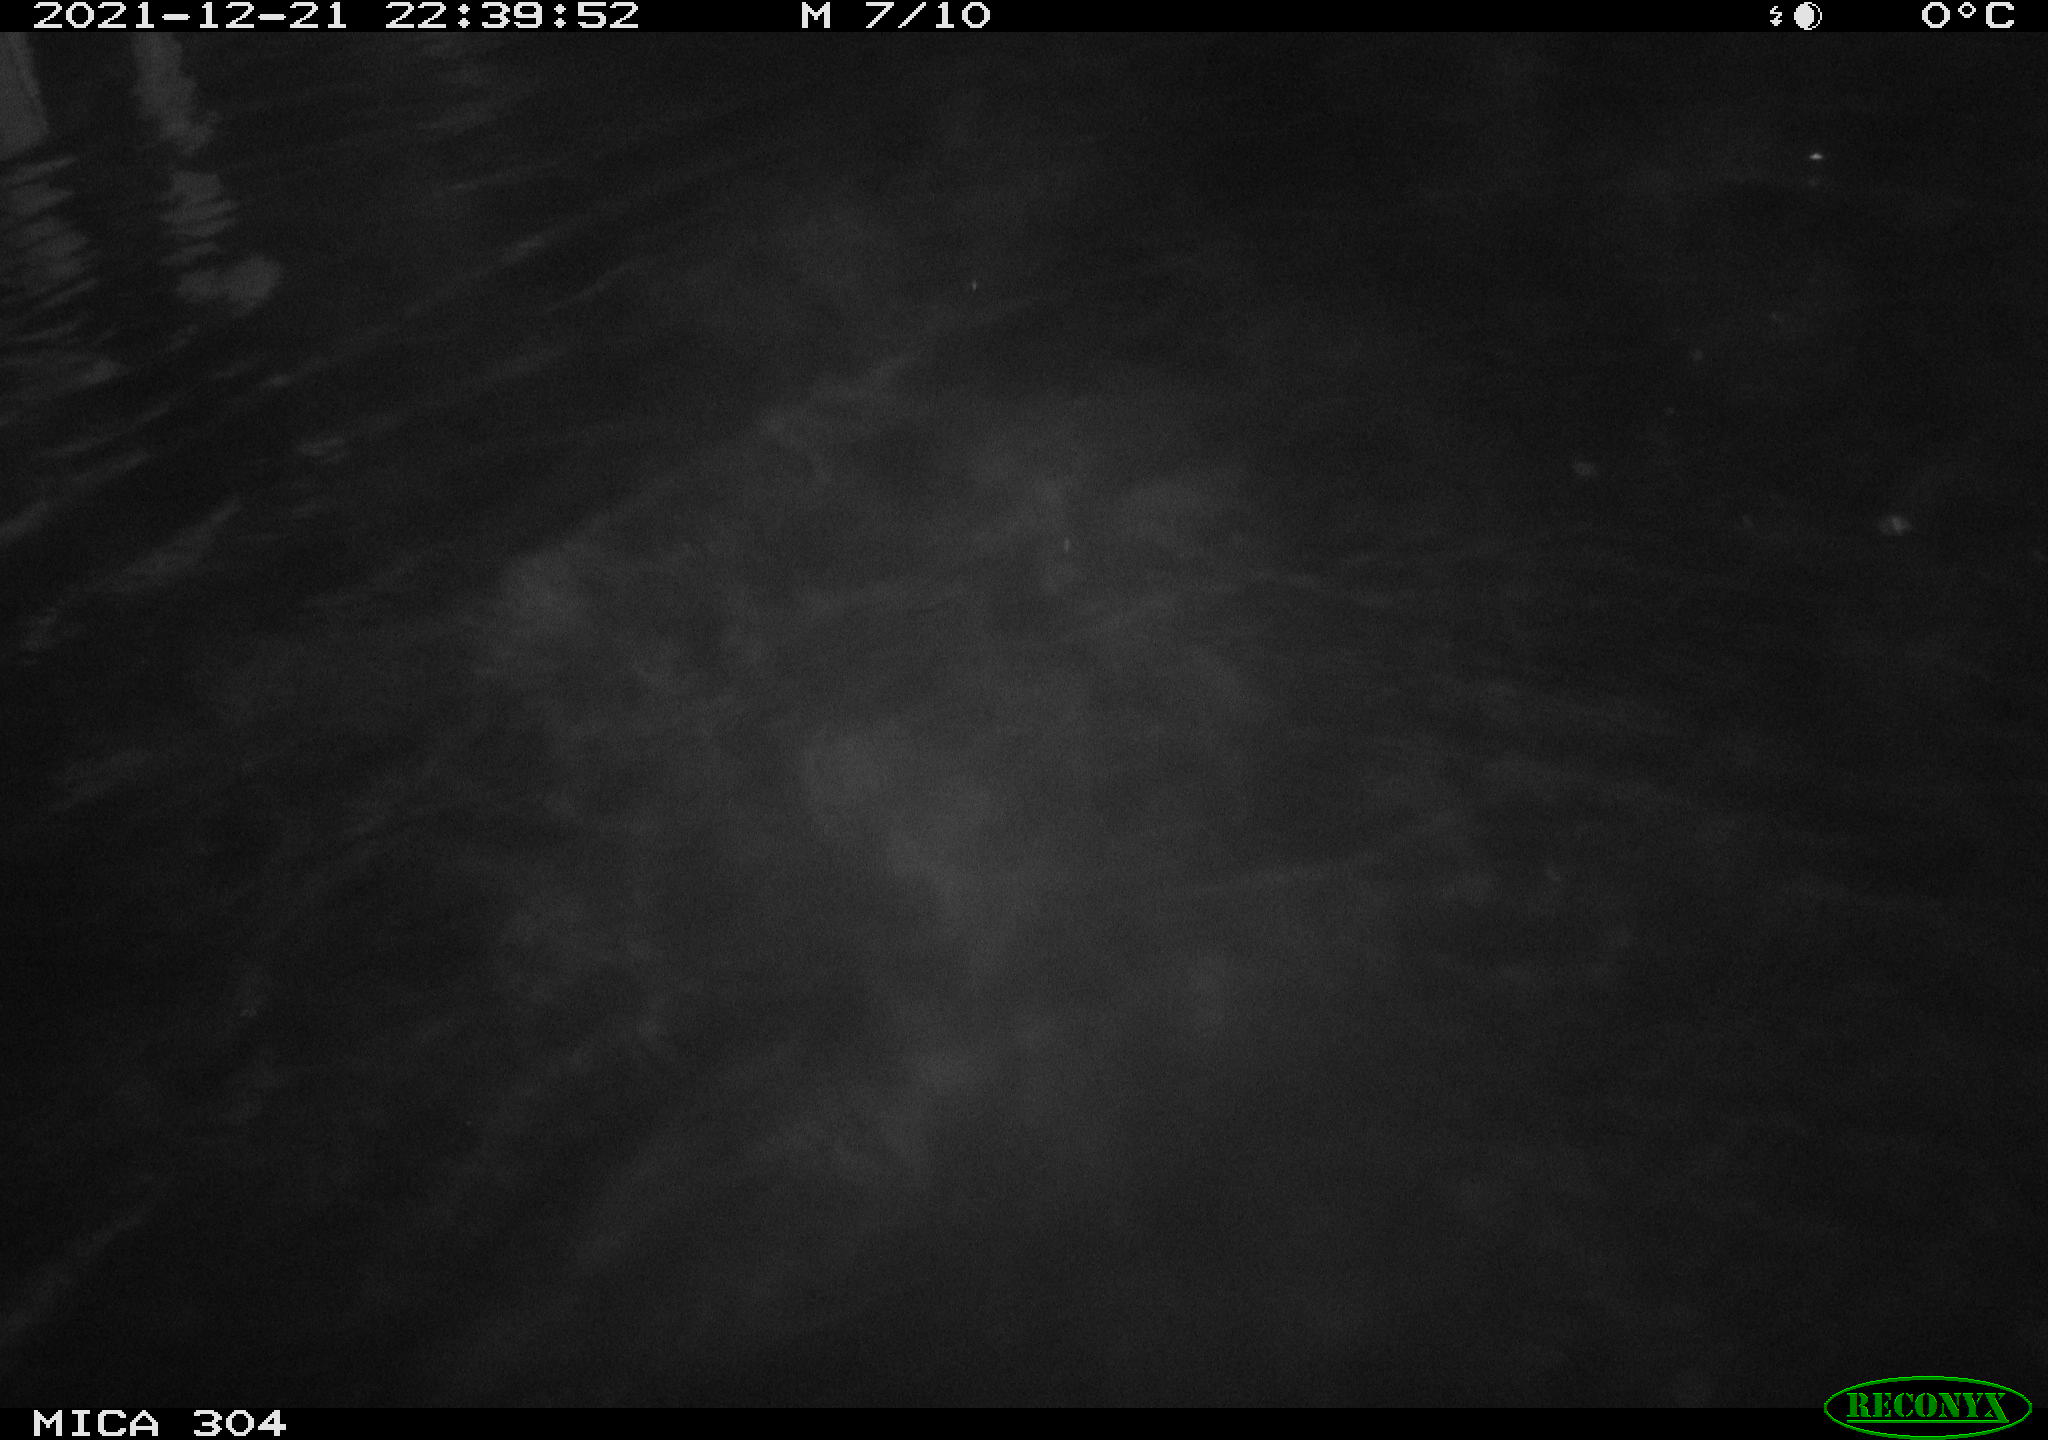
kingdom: Animalia
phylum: Chordata
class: Aves
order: Anseriformes
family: Anatidae
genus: Anas
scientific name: Anas
